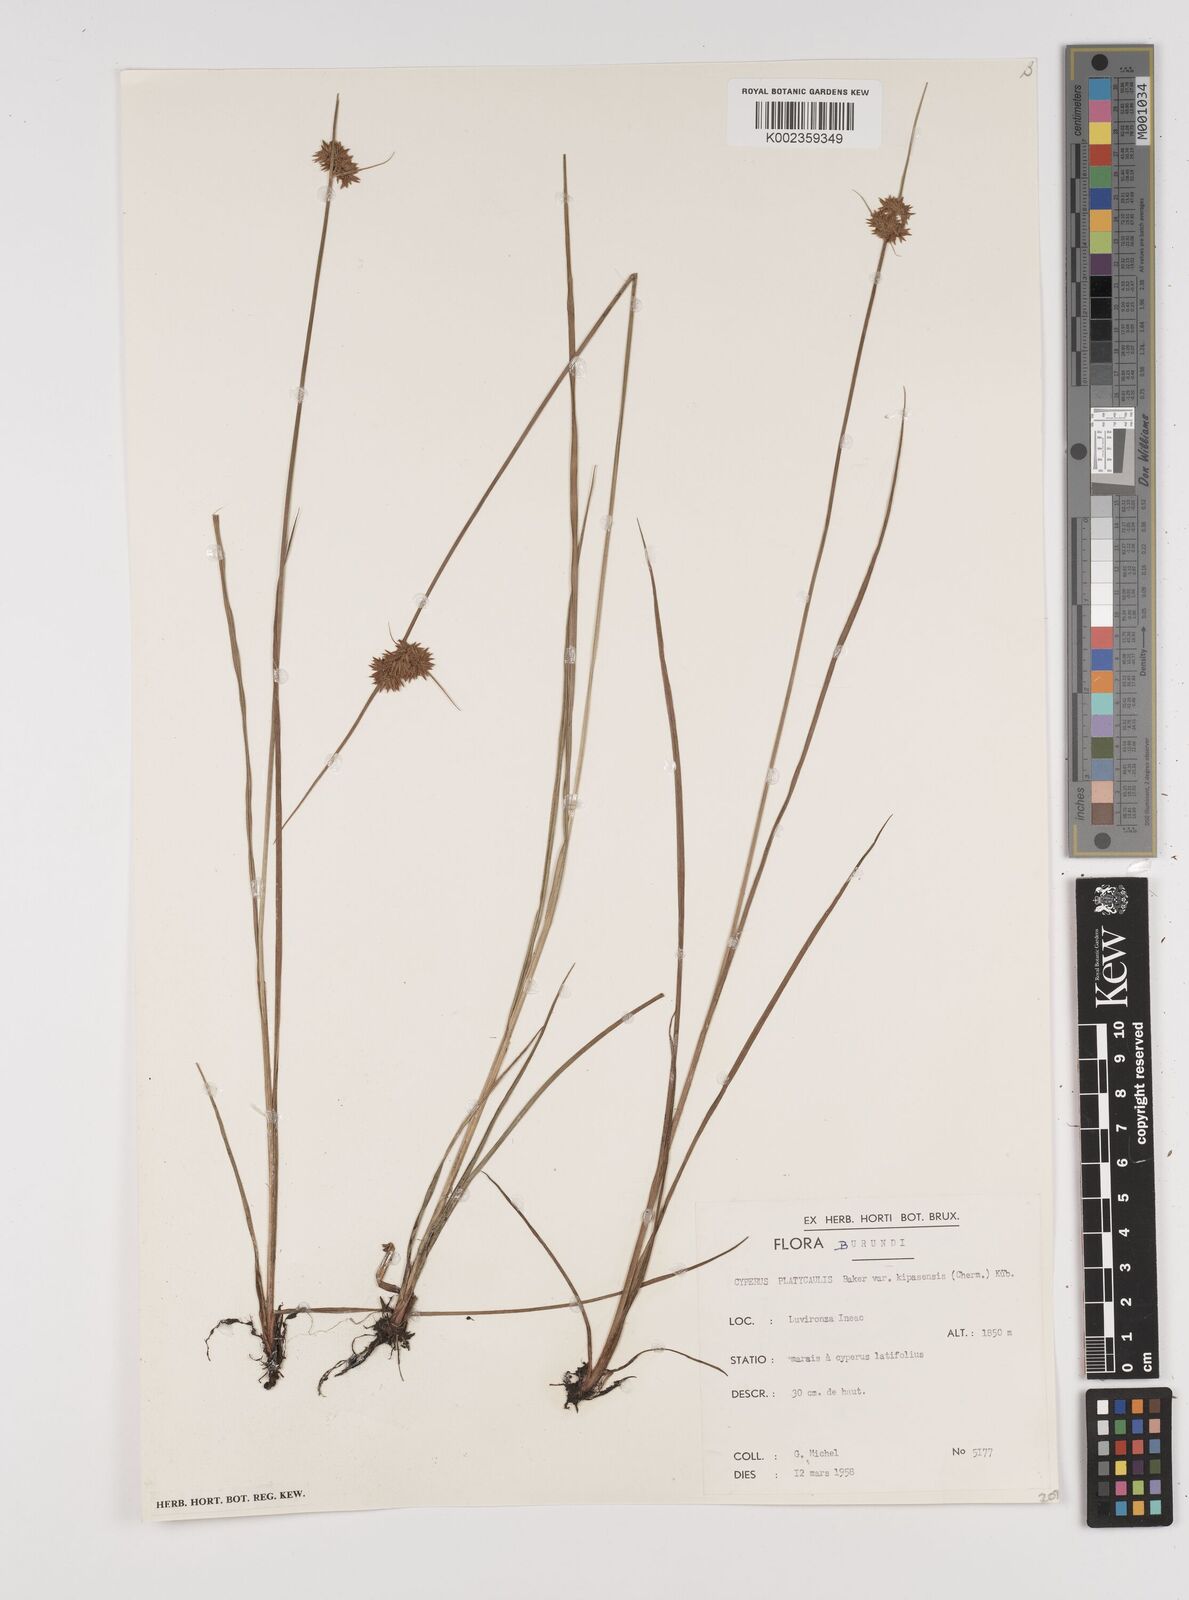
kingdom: Plantae
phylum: Tracheophyta
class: Liliopsida
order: Poales
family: Cyperaceae
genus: Cyperus
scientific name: Cyperus kipasensis
